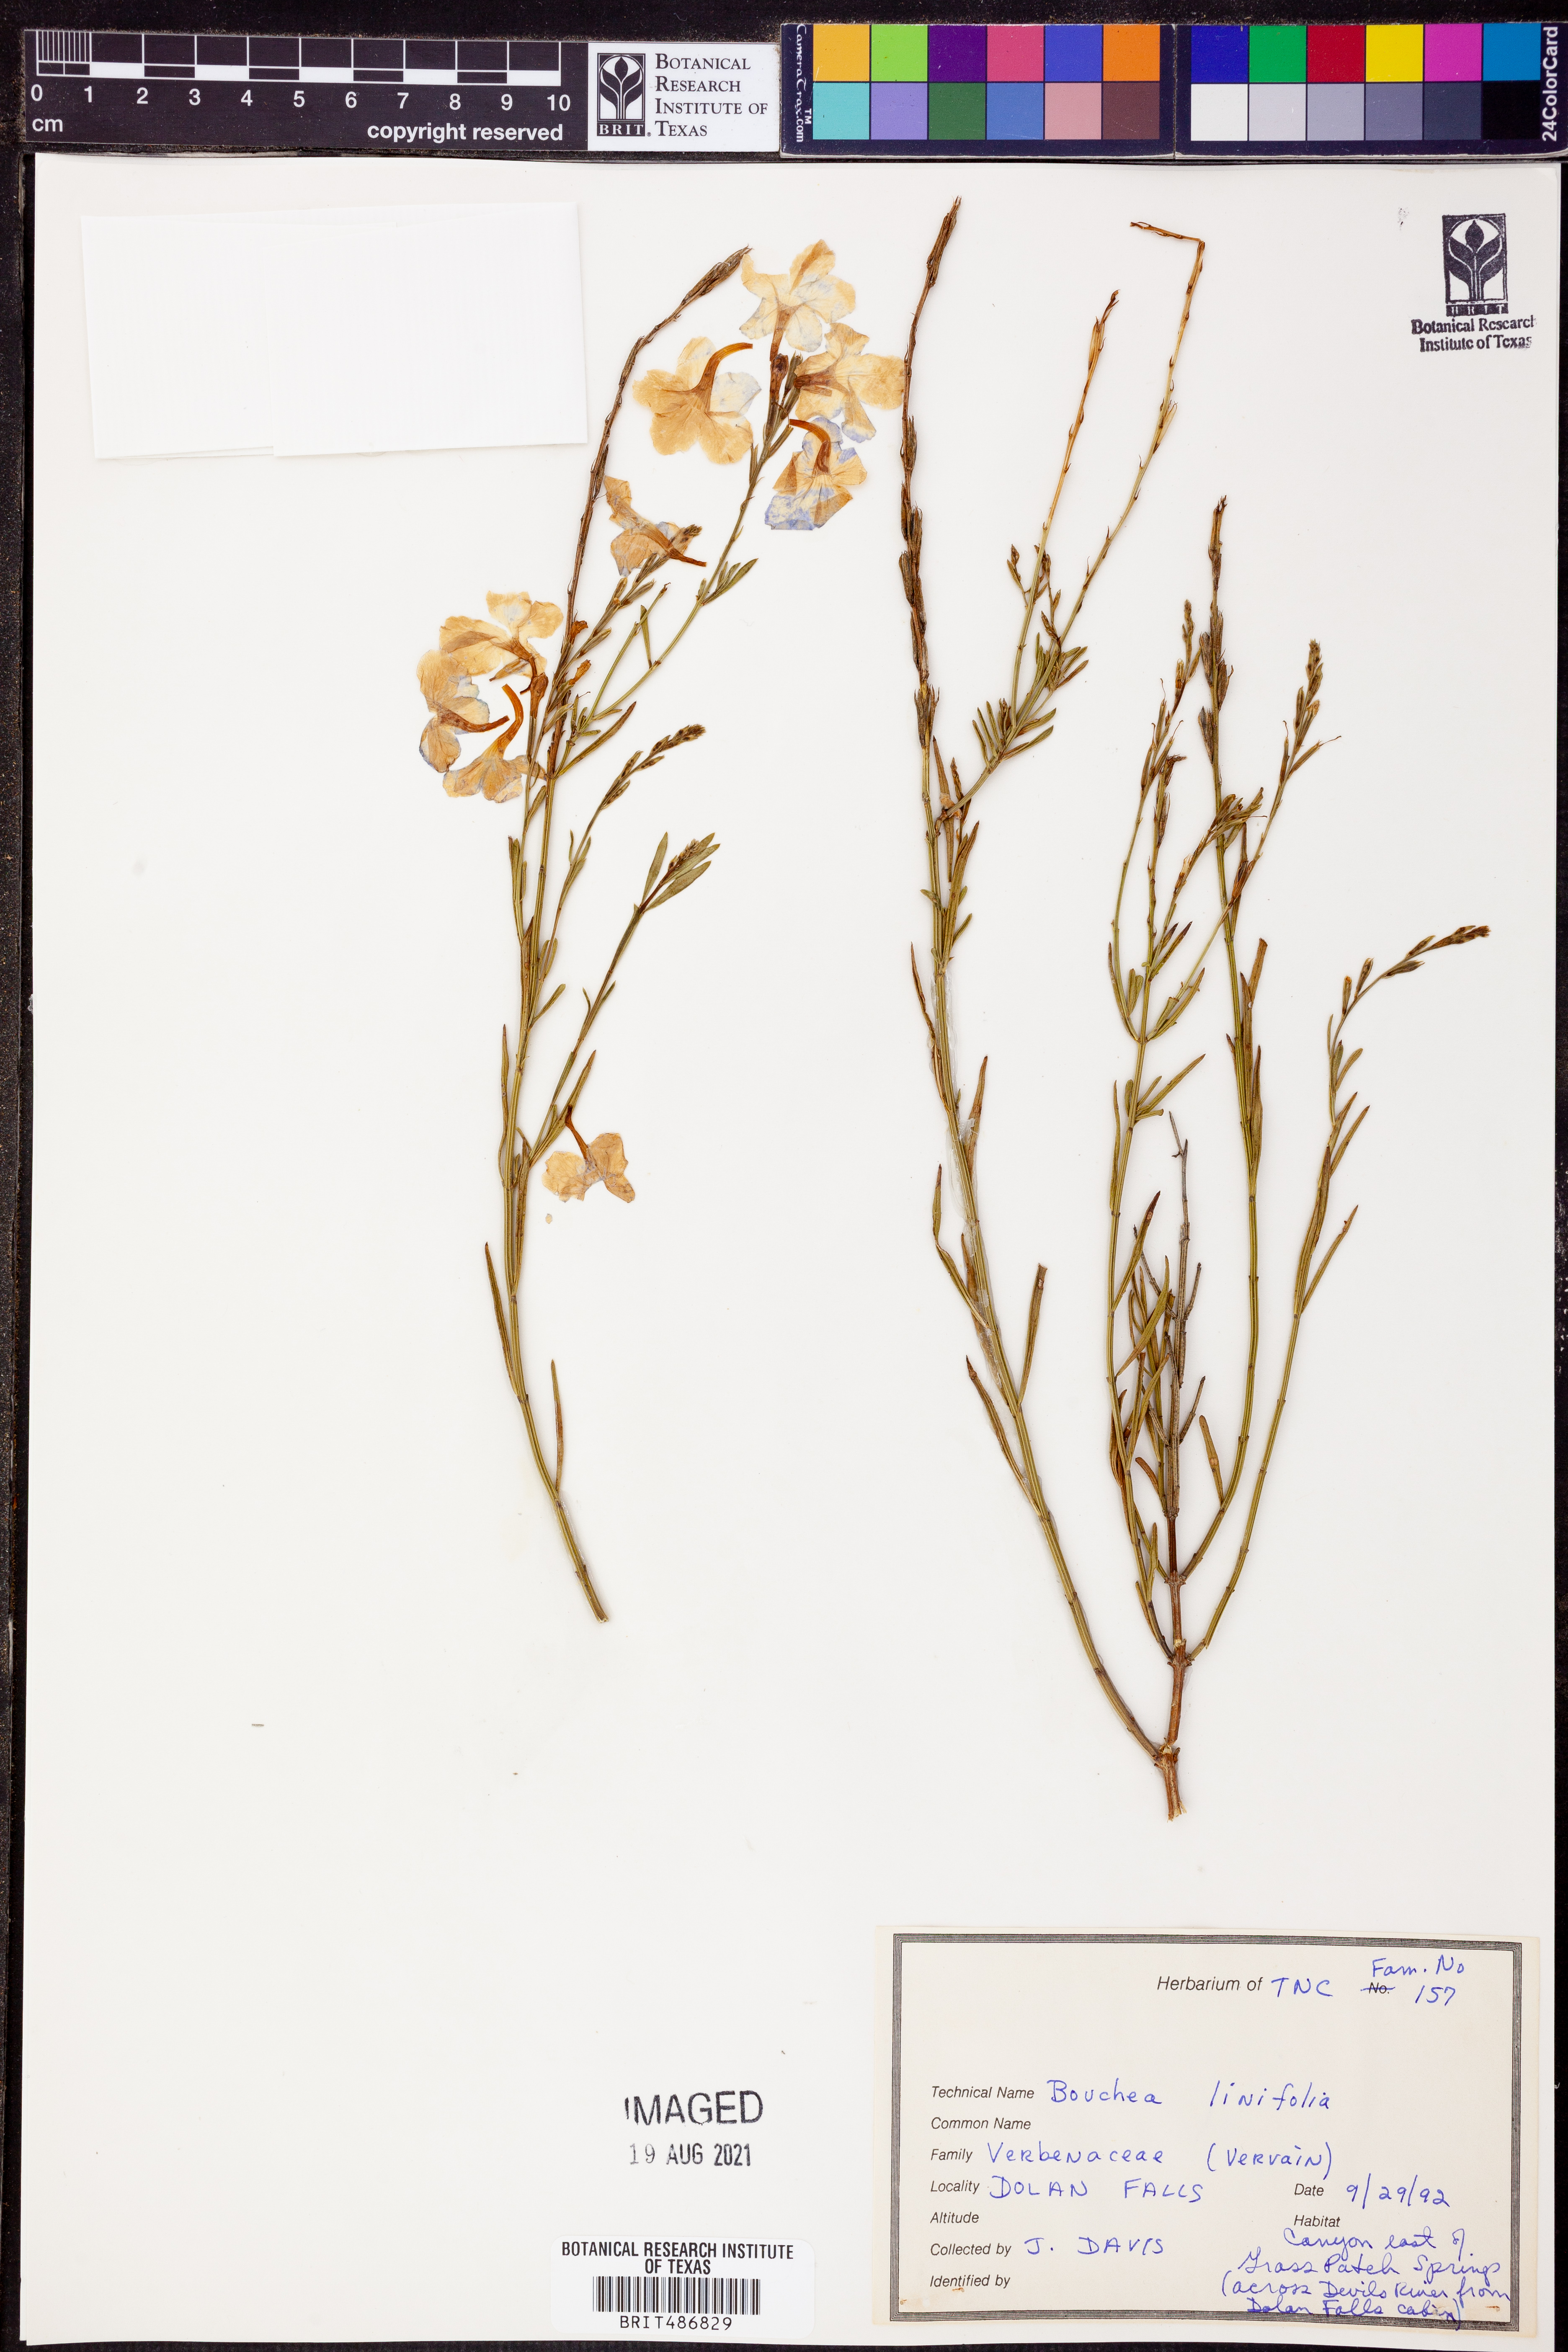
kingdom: Plantae
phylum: Tracheophyta
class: Magnoliopsida
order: Lamiales
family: Verbenaceae
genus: Bouchea
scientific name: Bouchea linifolia
